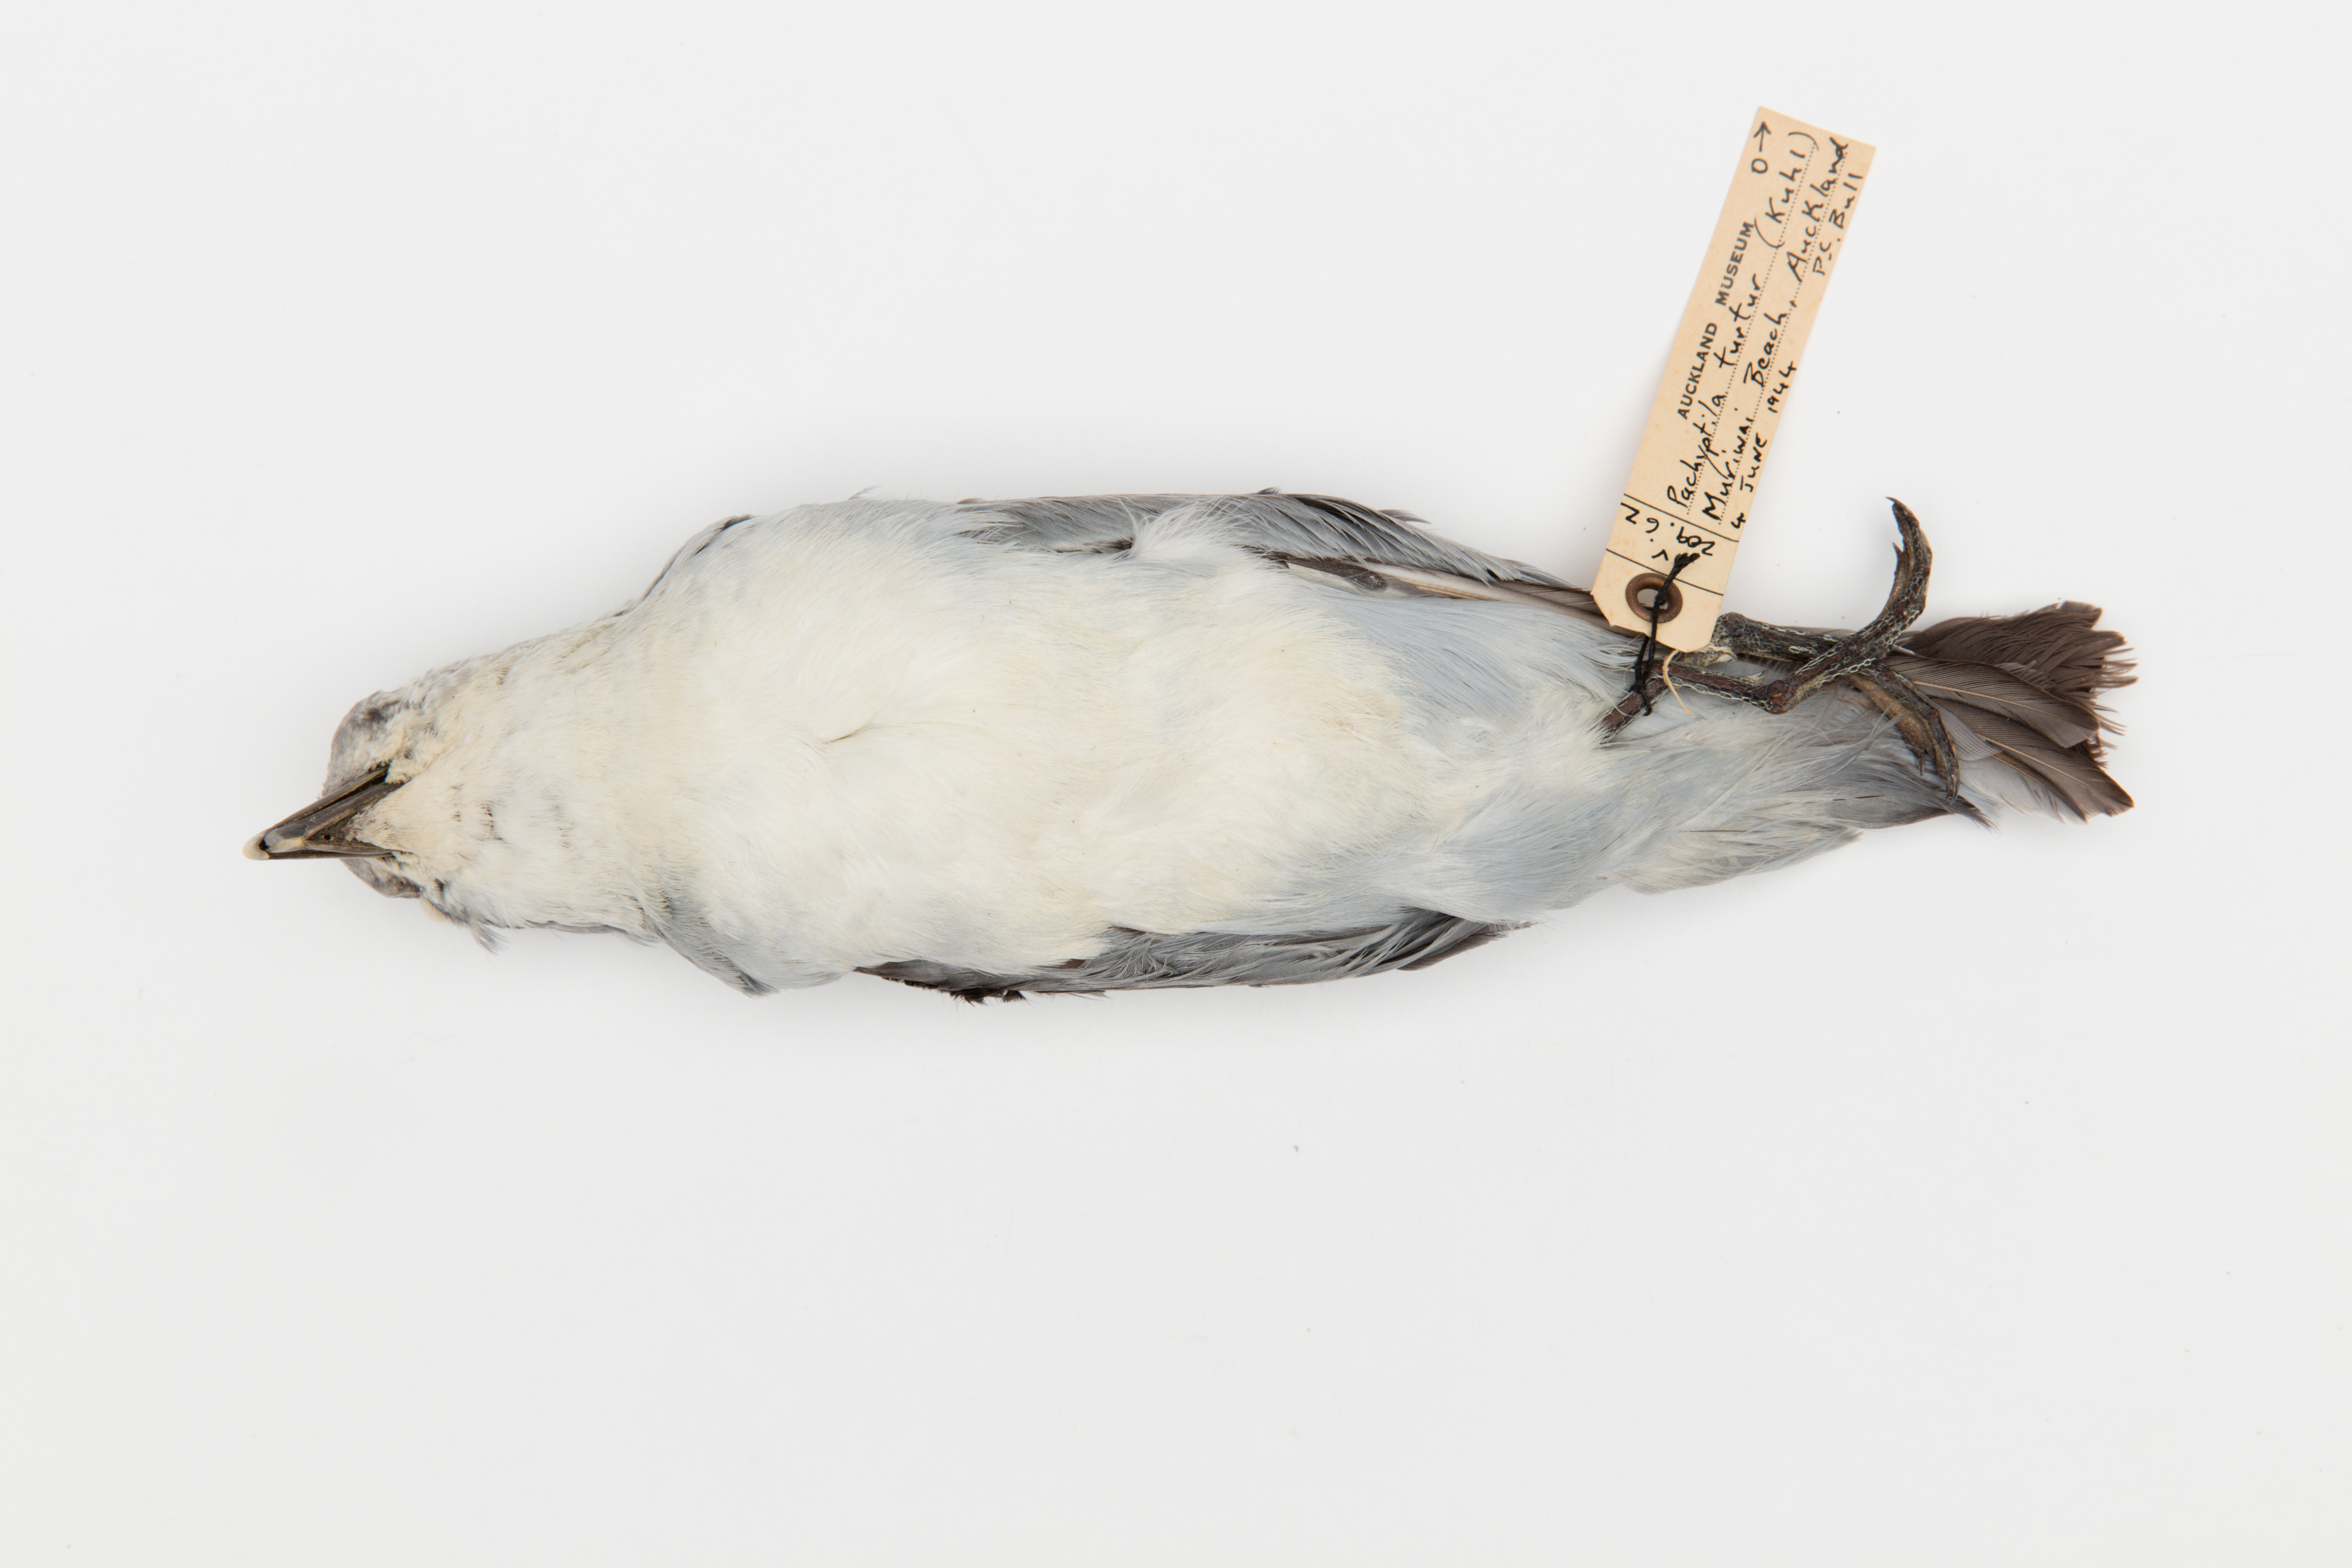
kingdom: Animalia
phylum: Chordata
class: Aves
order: Procellariiformes
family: Procellariidae
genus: Pachyptila
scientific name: Pachyptila turtur
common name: Fairy prion
